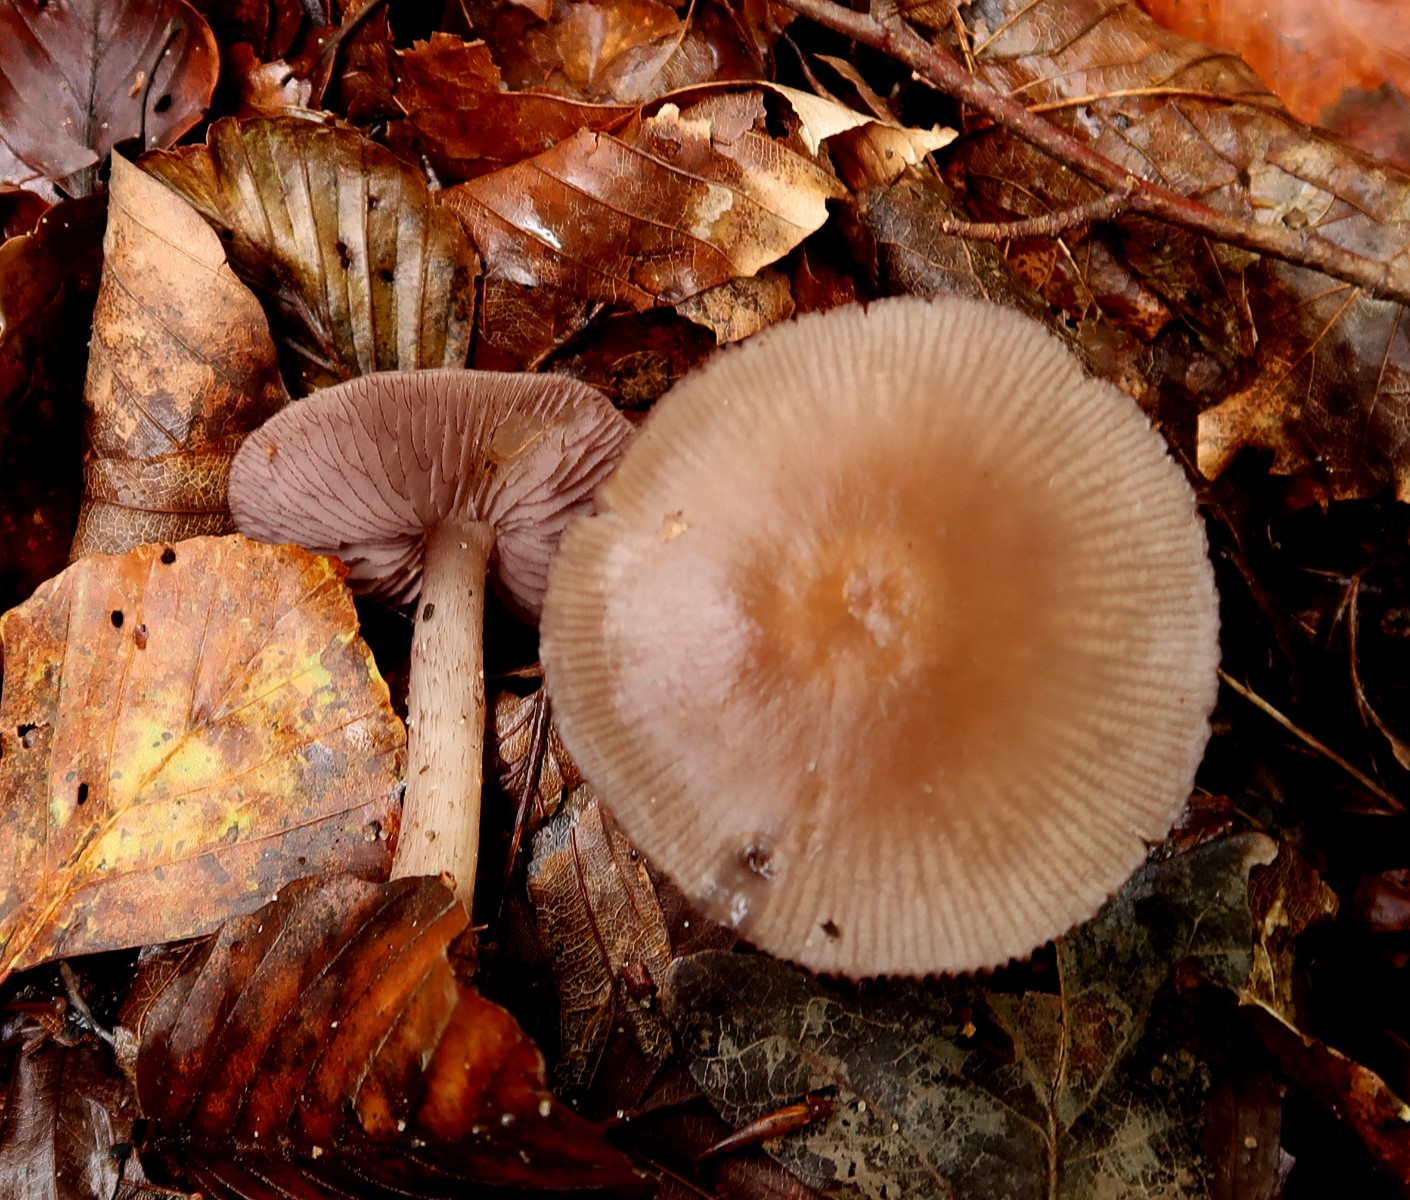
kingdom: Fungi
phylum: Basidiomycota
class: Agaricomycetes
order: Agaricales
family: Mycenaceae
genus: Mycena
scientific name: Mycena pelianthina
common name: mørkbladet huesvamp
